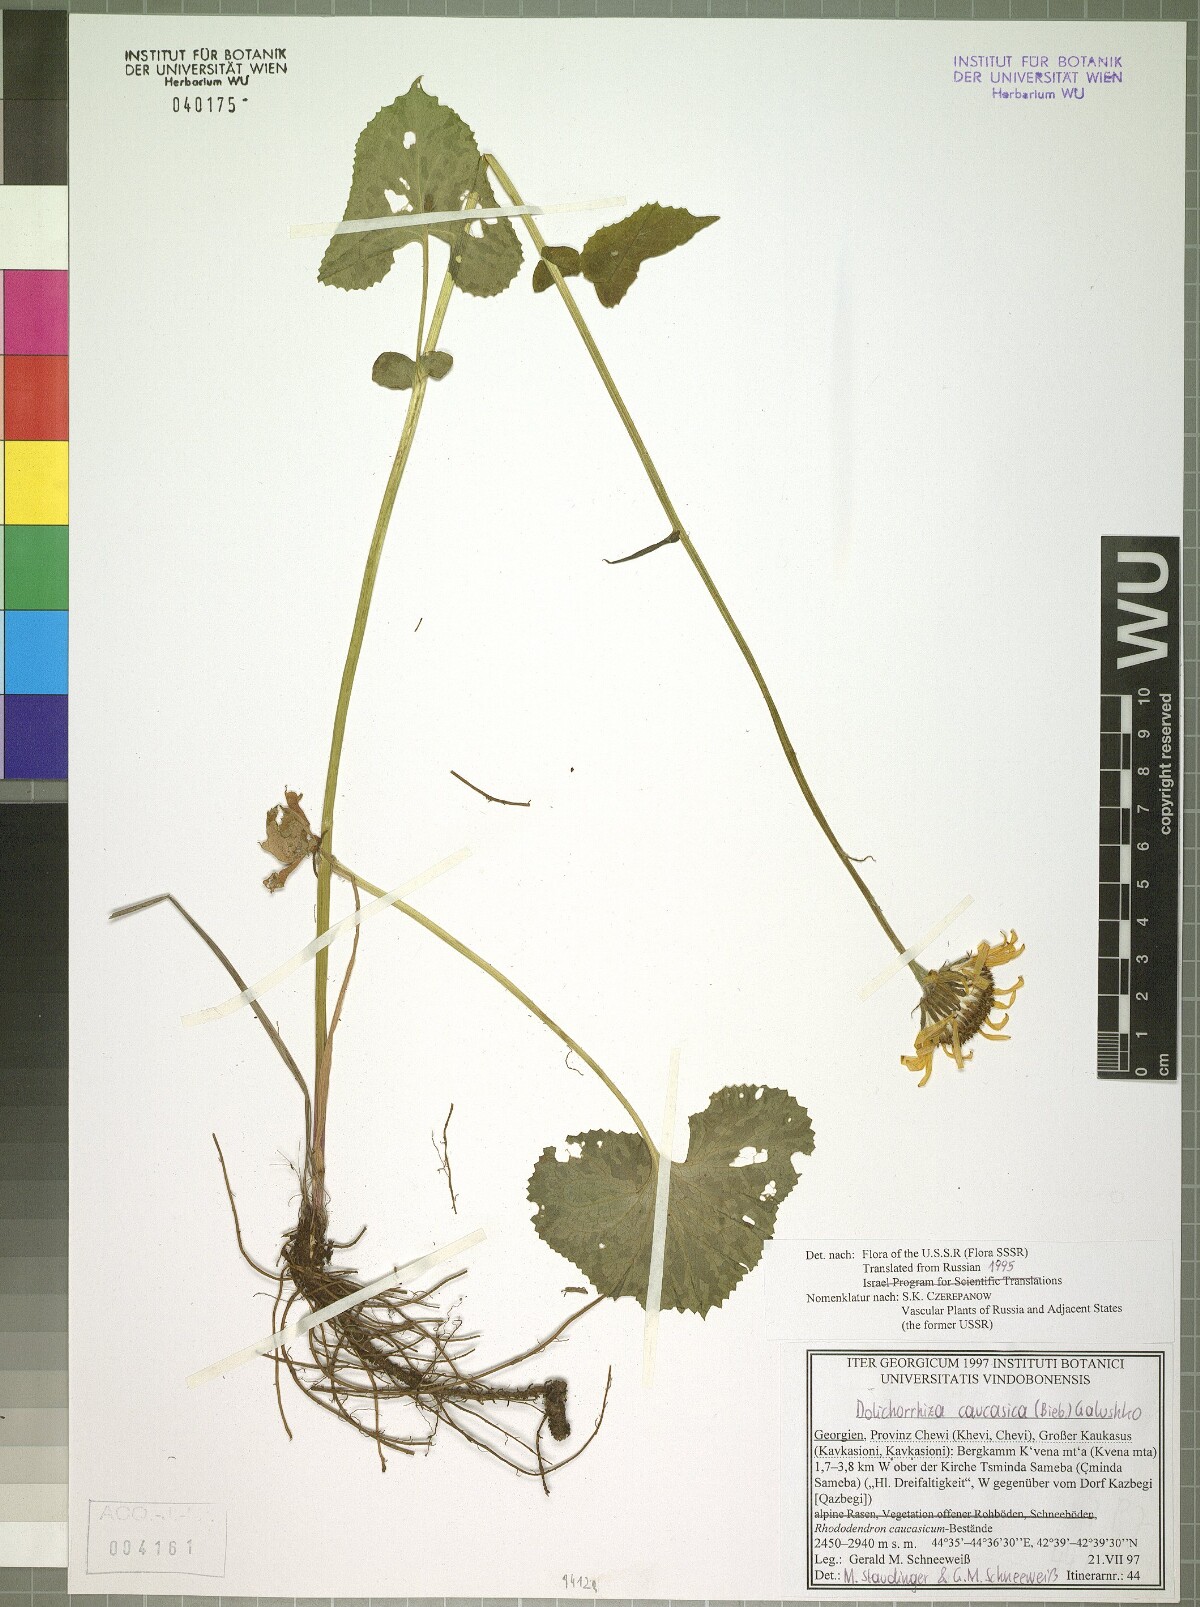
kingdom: Plantae
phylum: Tracheophyta
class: Magnoliopsida
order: Asterales
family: Asteraceae
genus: Dolichorrhiza
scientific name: Dolichorrhiza caucasica
